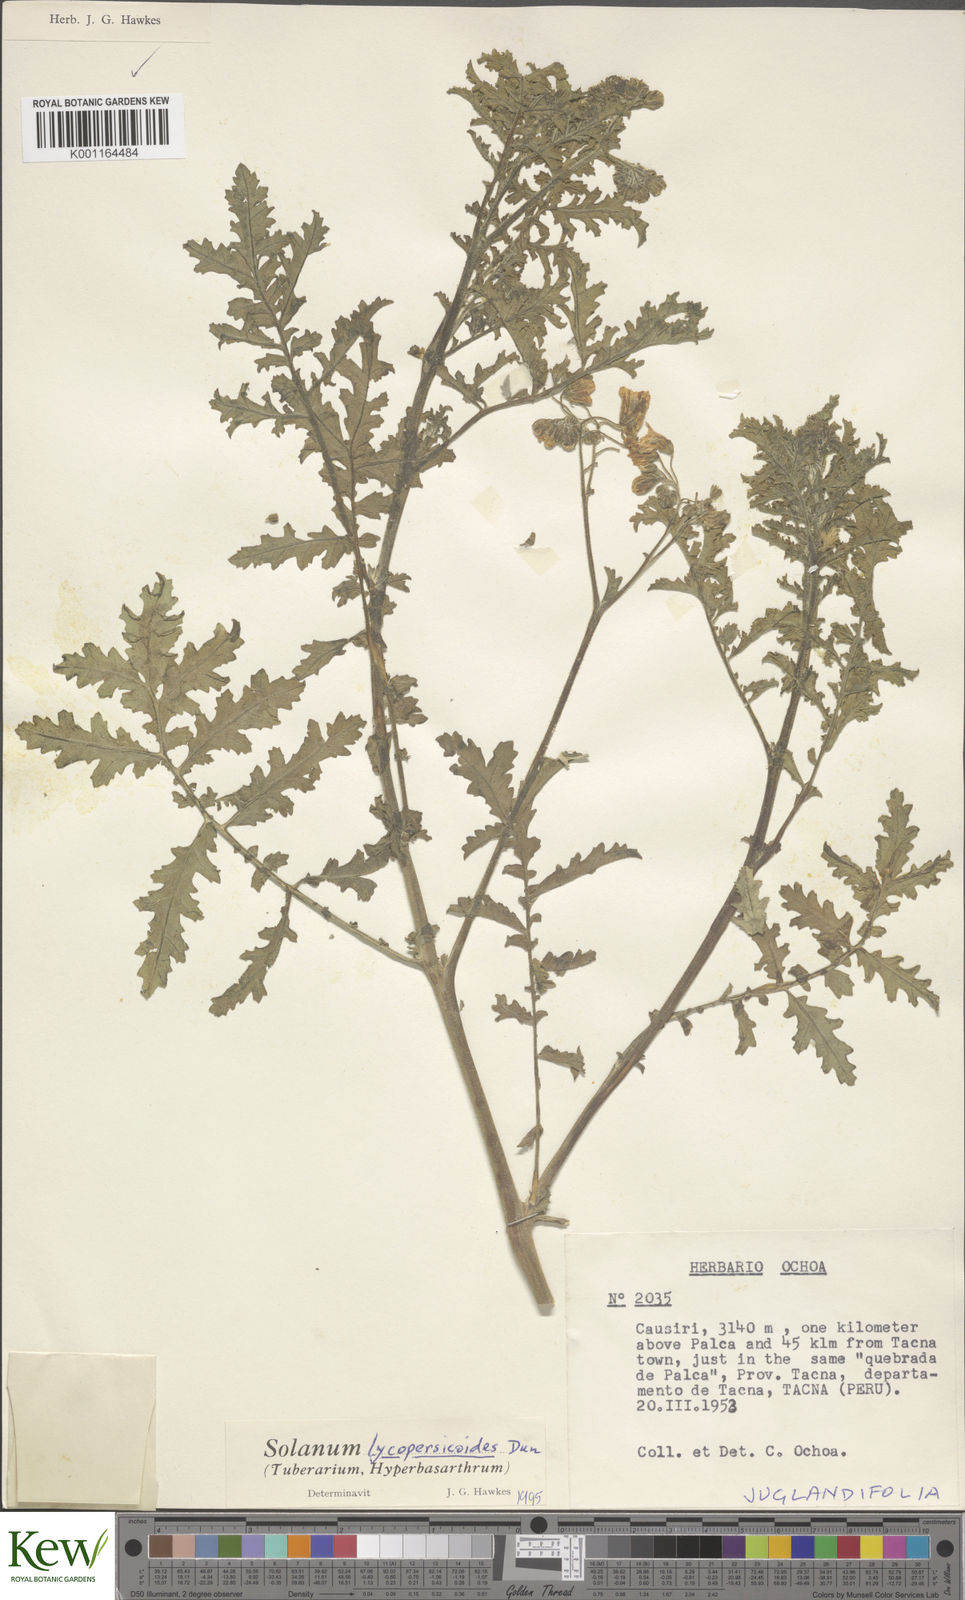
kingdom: Plantae
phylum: Tracheophyta
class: Magnoliopsida
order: Solanales
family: Solanaceae
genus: Solanum
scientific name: Solanum lycopersicoides
